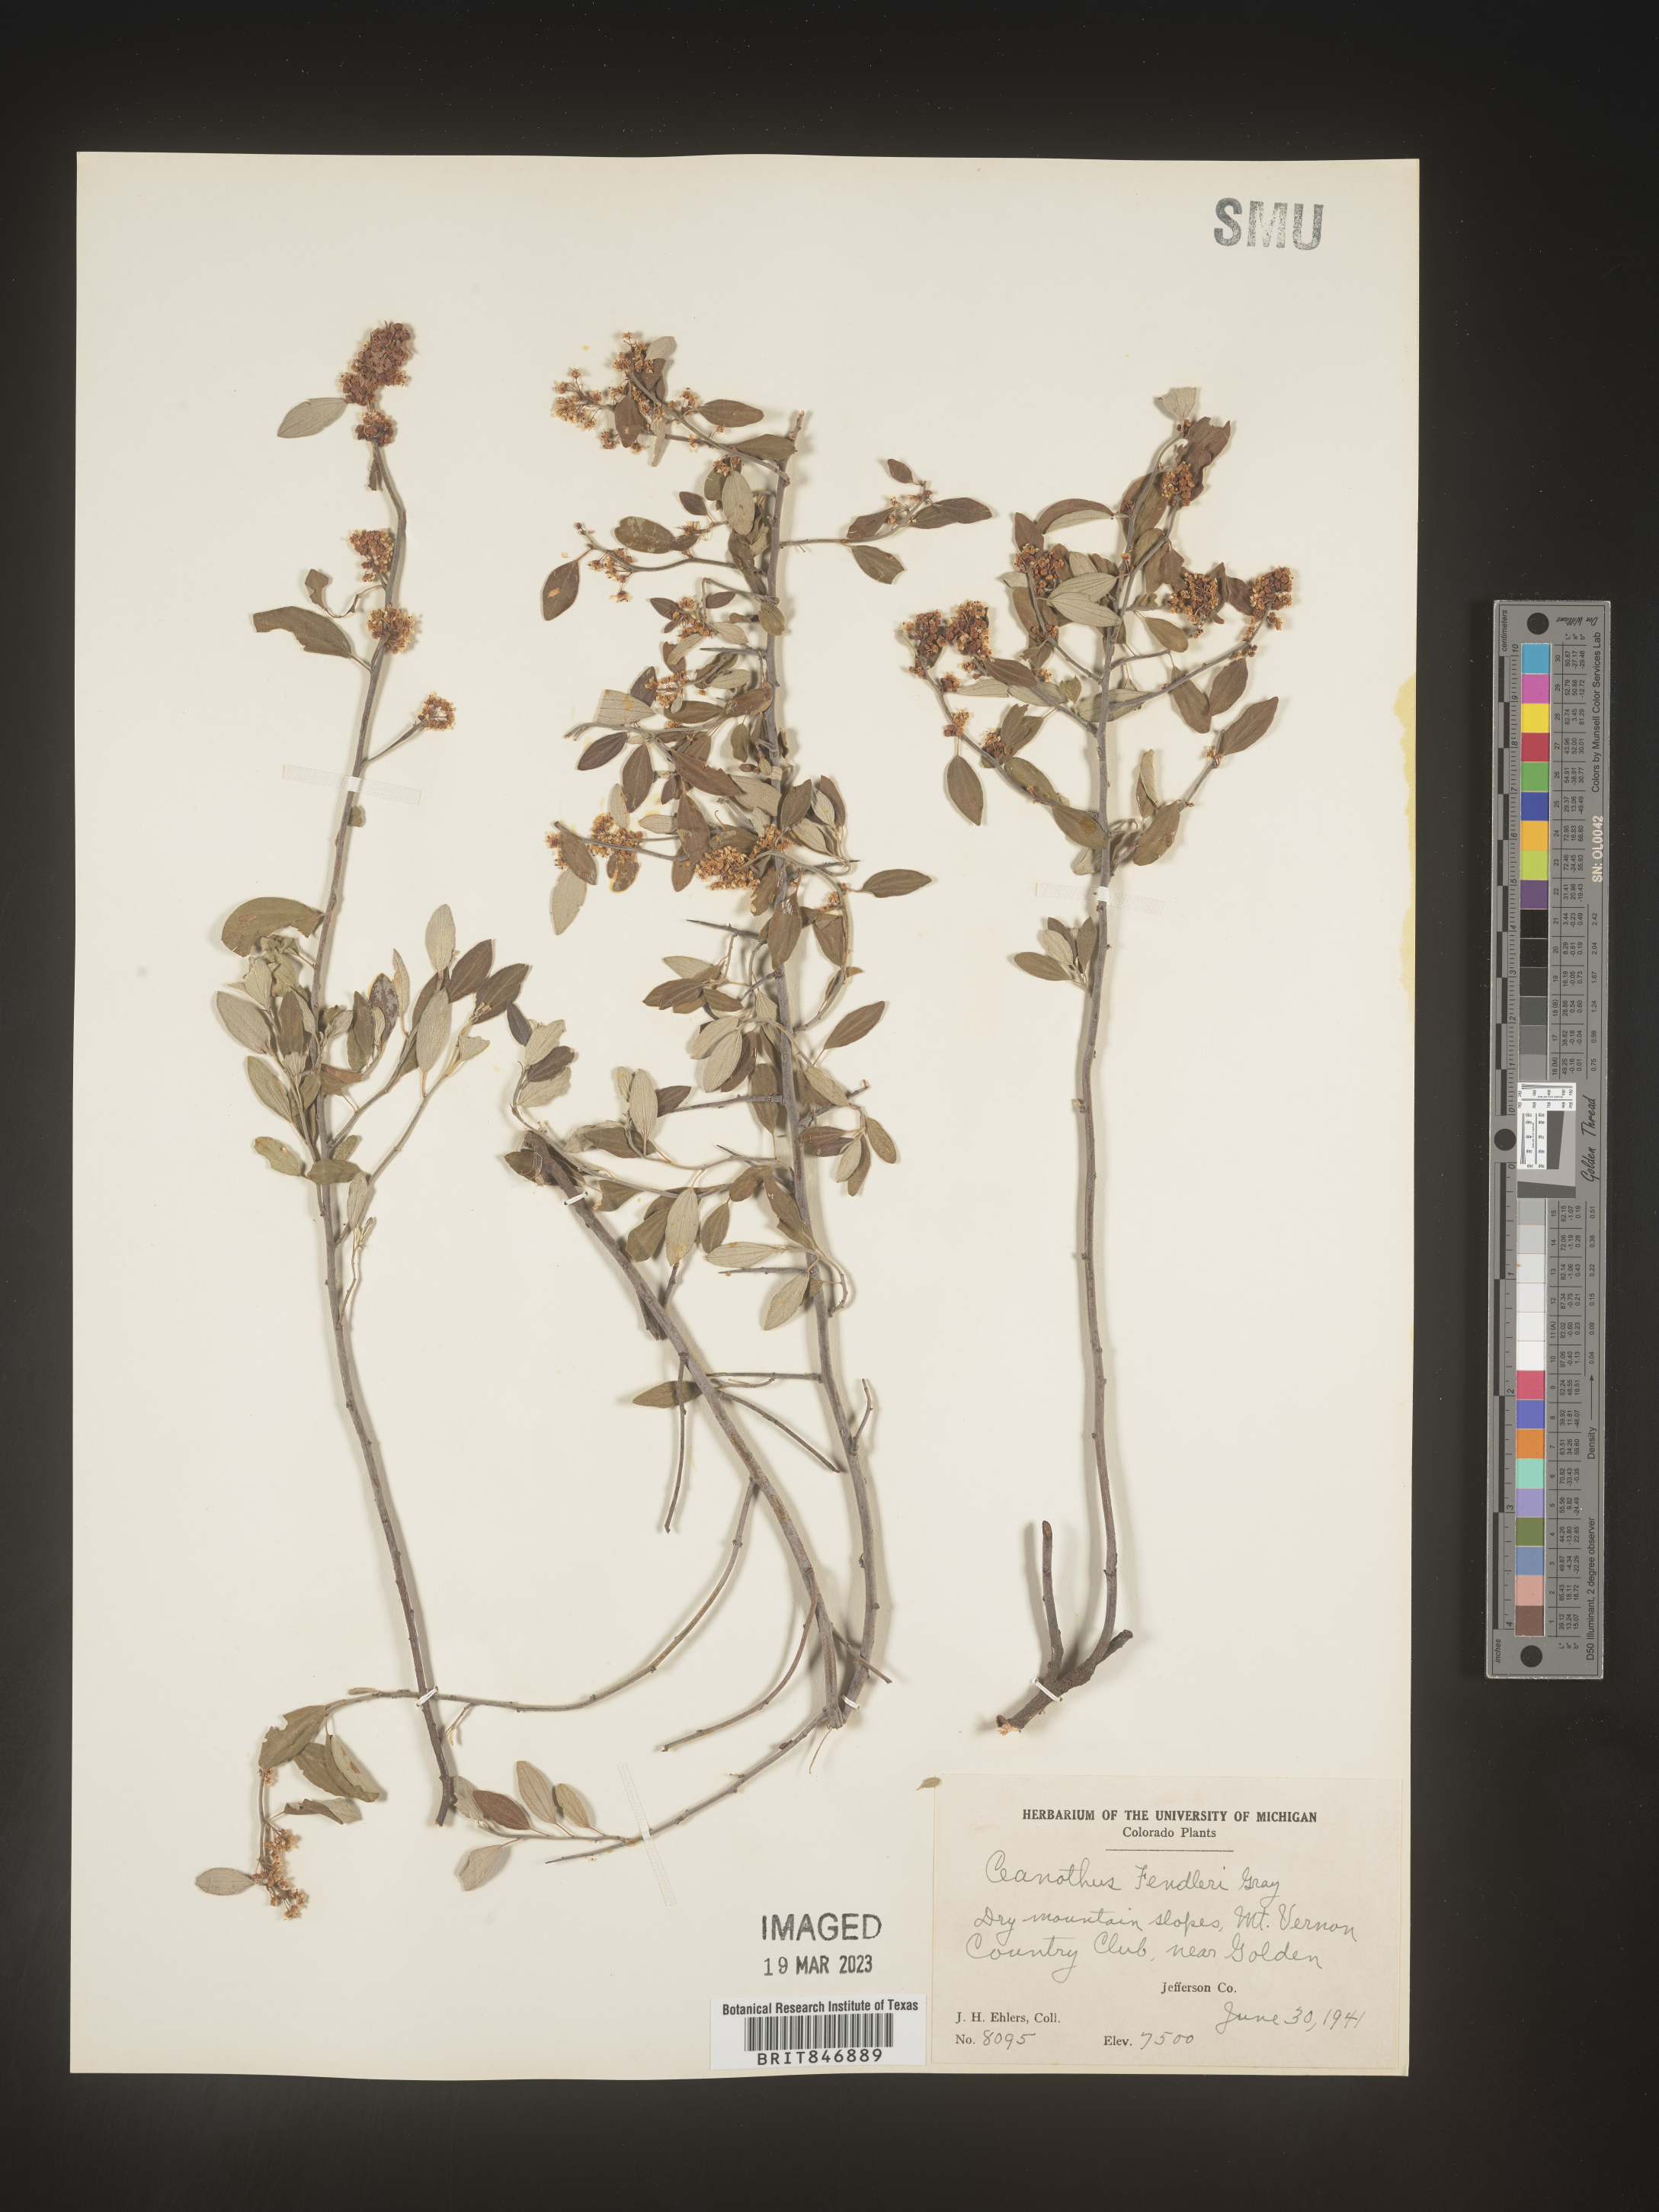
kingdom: Plantae
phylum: Tracheophyta
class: Magnoliopsida
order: Rosales
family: Rhamnaceae
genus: Ceanothus
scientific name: Ceanothus fendleri
